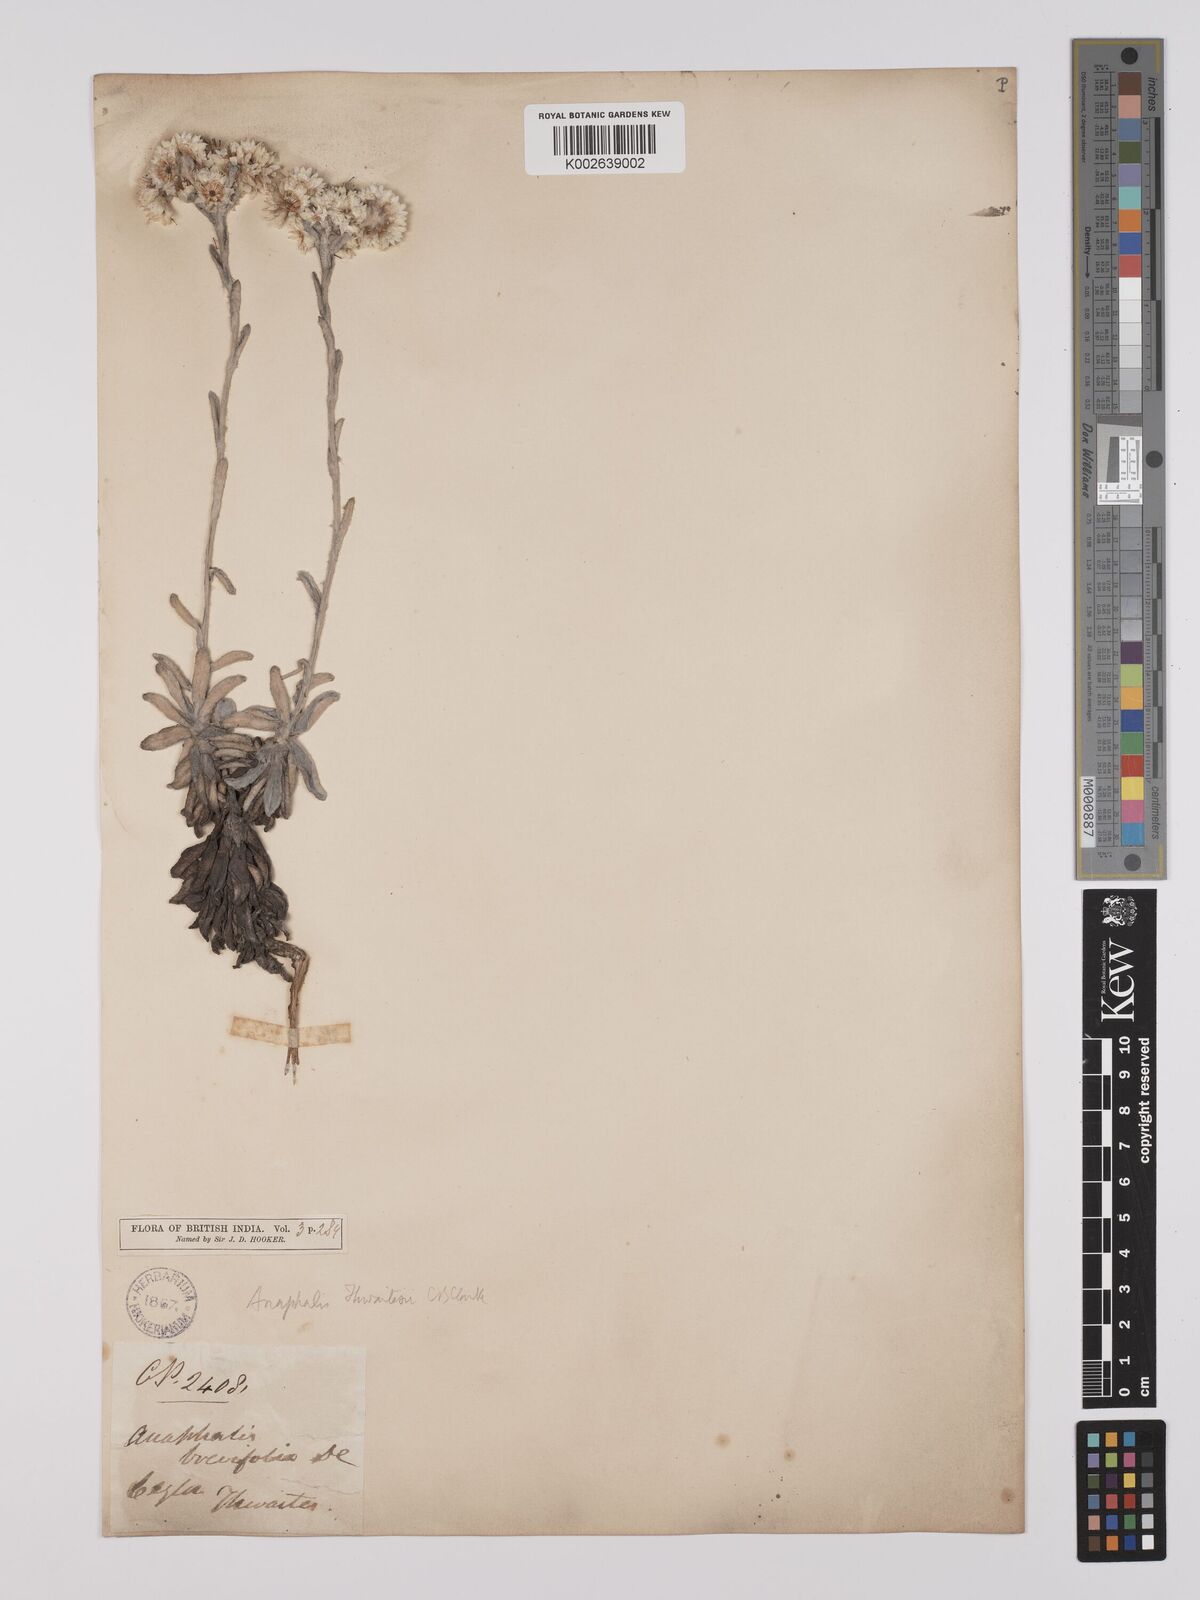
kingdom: Plantae
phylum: Tracheophyta
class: Magnoliopsida
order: Asterales
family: Asteraceae
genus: Anaphalis
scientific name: Anaphalis thwaitesii
